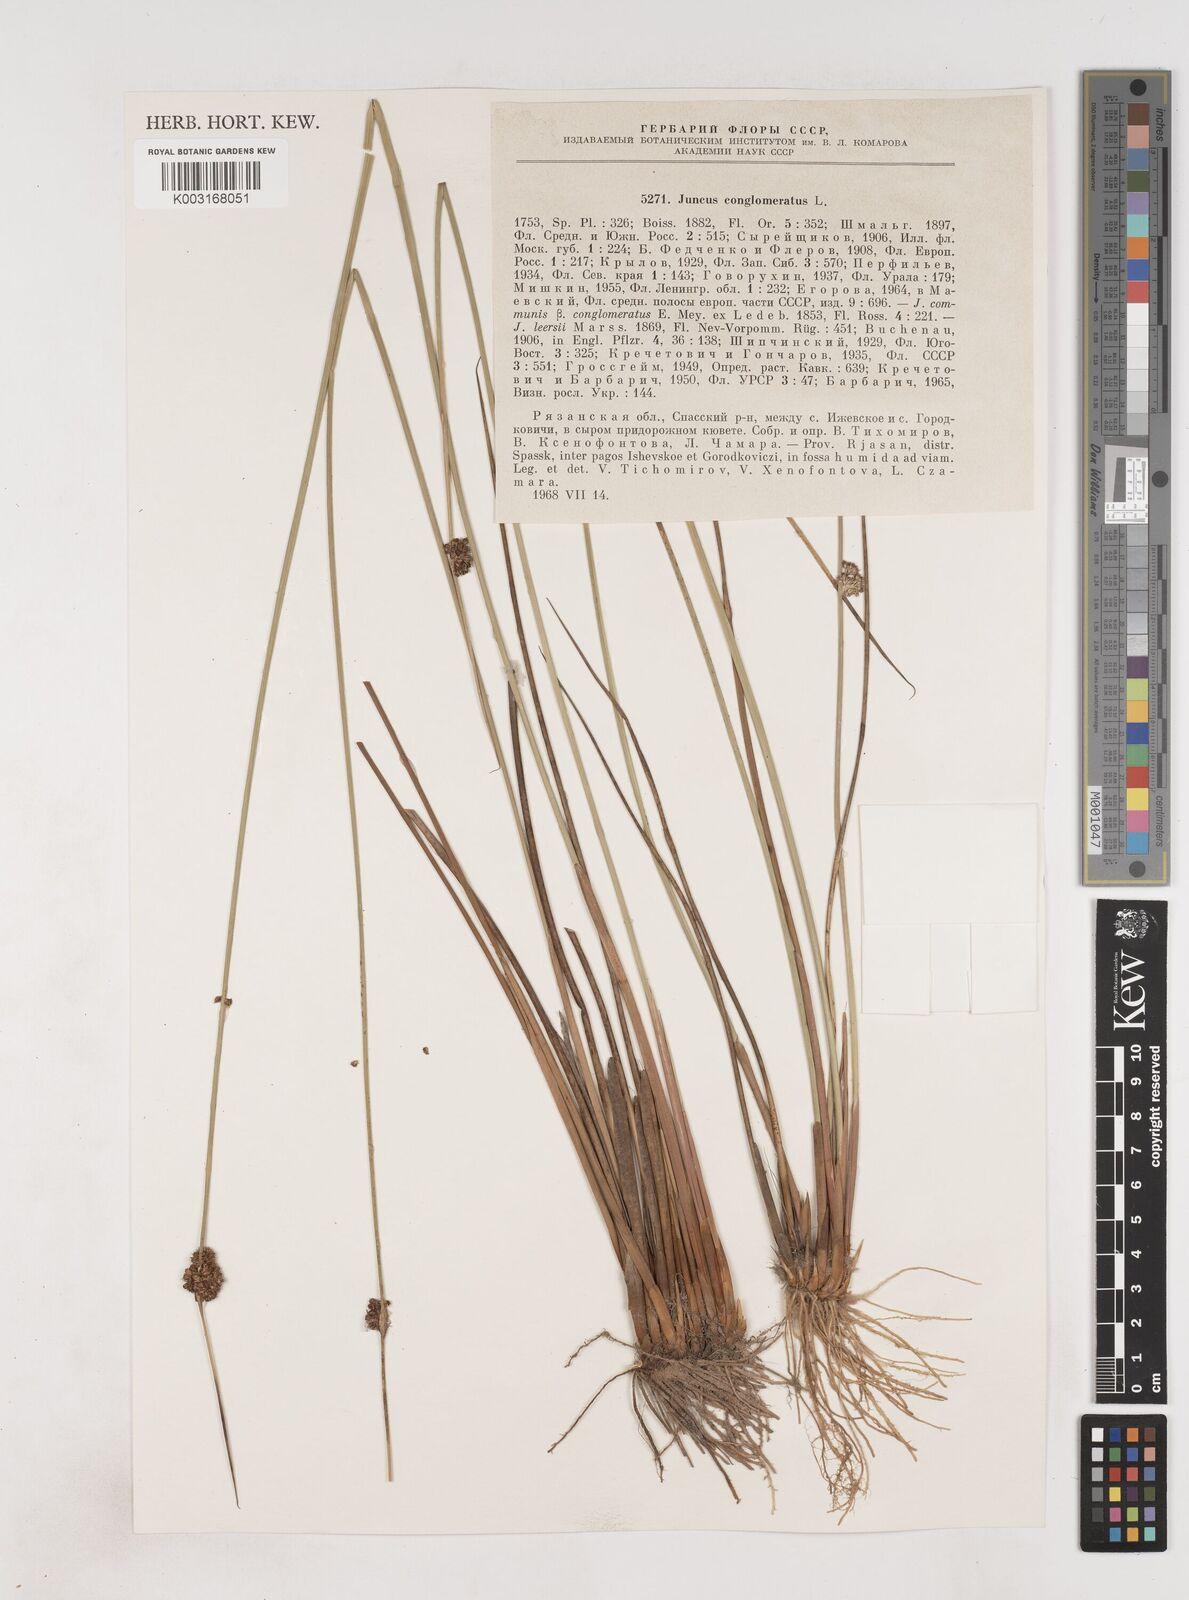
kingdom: Plantae
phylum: Tracheophyta
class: Liliopsida
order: Poales
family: Juncaceae
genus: Juncus
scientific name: Juncus conglomeratus
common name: Compact rush
